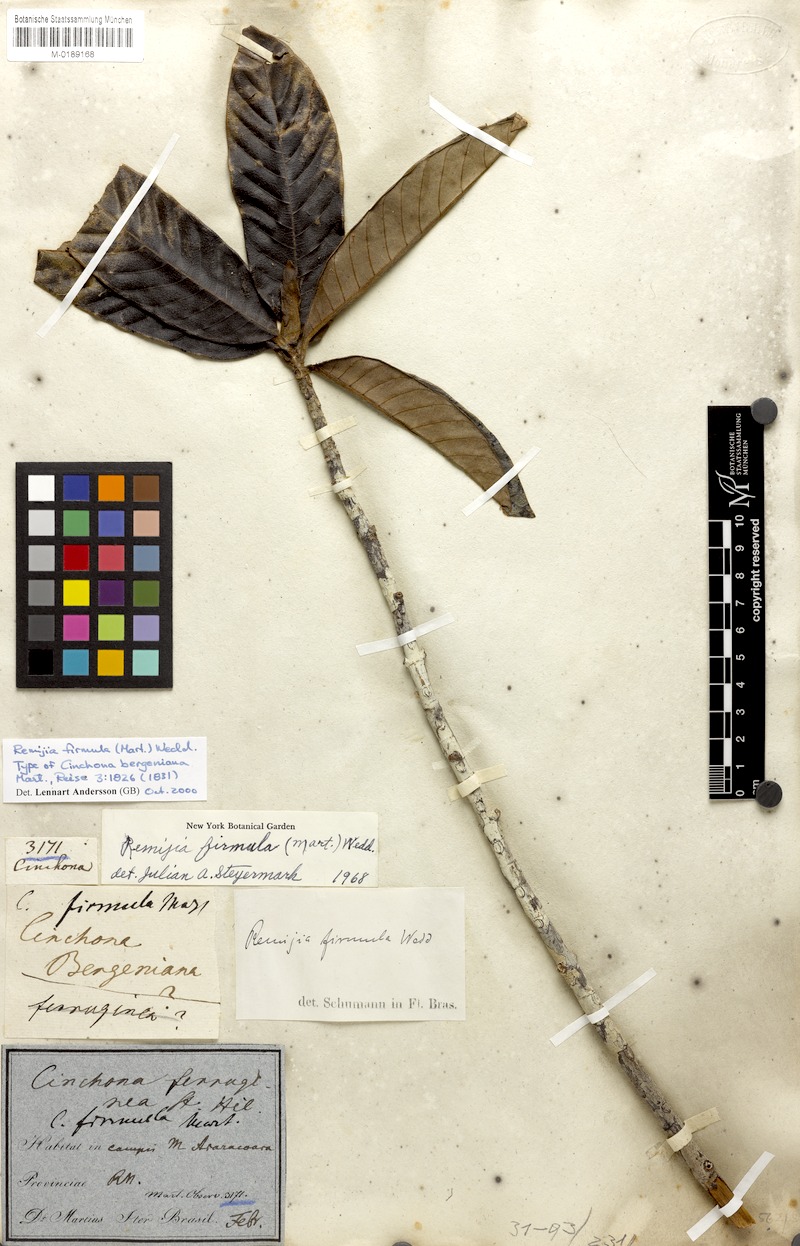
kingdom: Plantae
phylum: Tracheophyta
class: Magnoliopsida
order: Gentianales
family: Rubiaceae
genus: Remijia
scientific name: Remijia firmula
